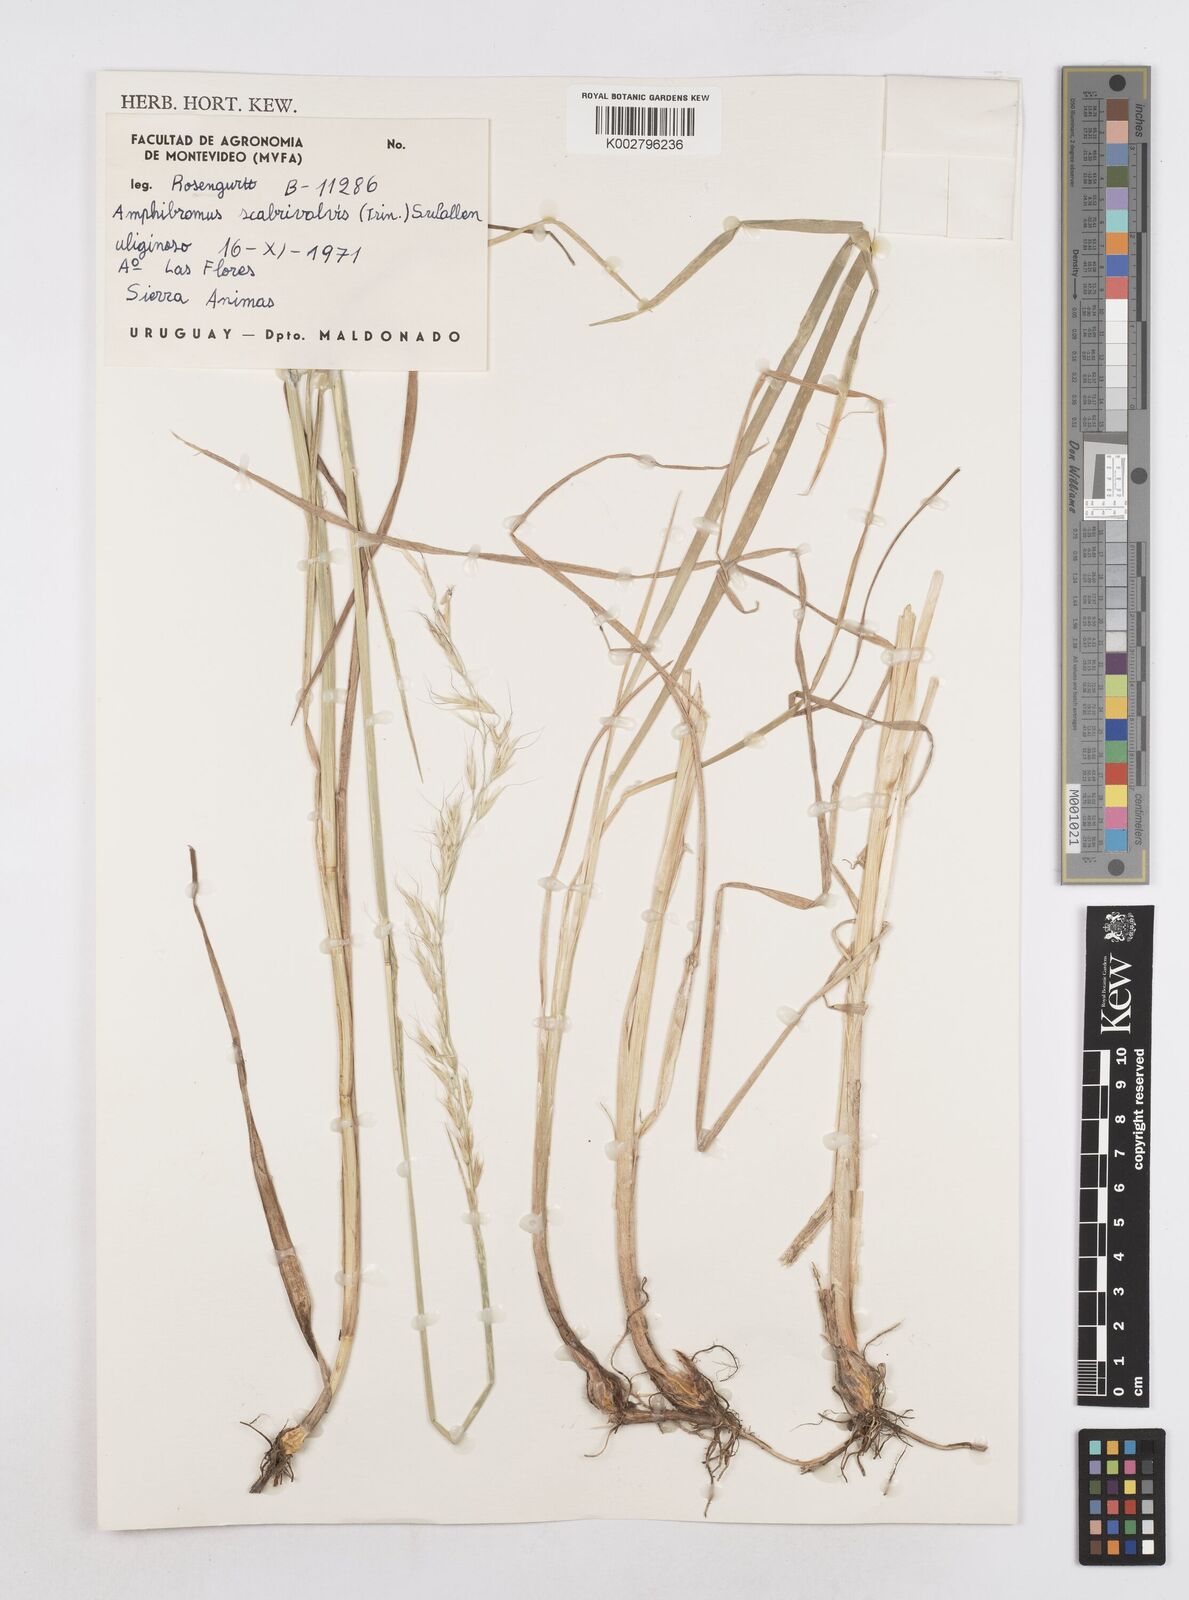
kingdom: Plantae
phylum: Tracheophyta
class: Liliopsida
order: Poales
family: Poaceae
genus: Helictotrichon
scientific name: Helictotrichon
